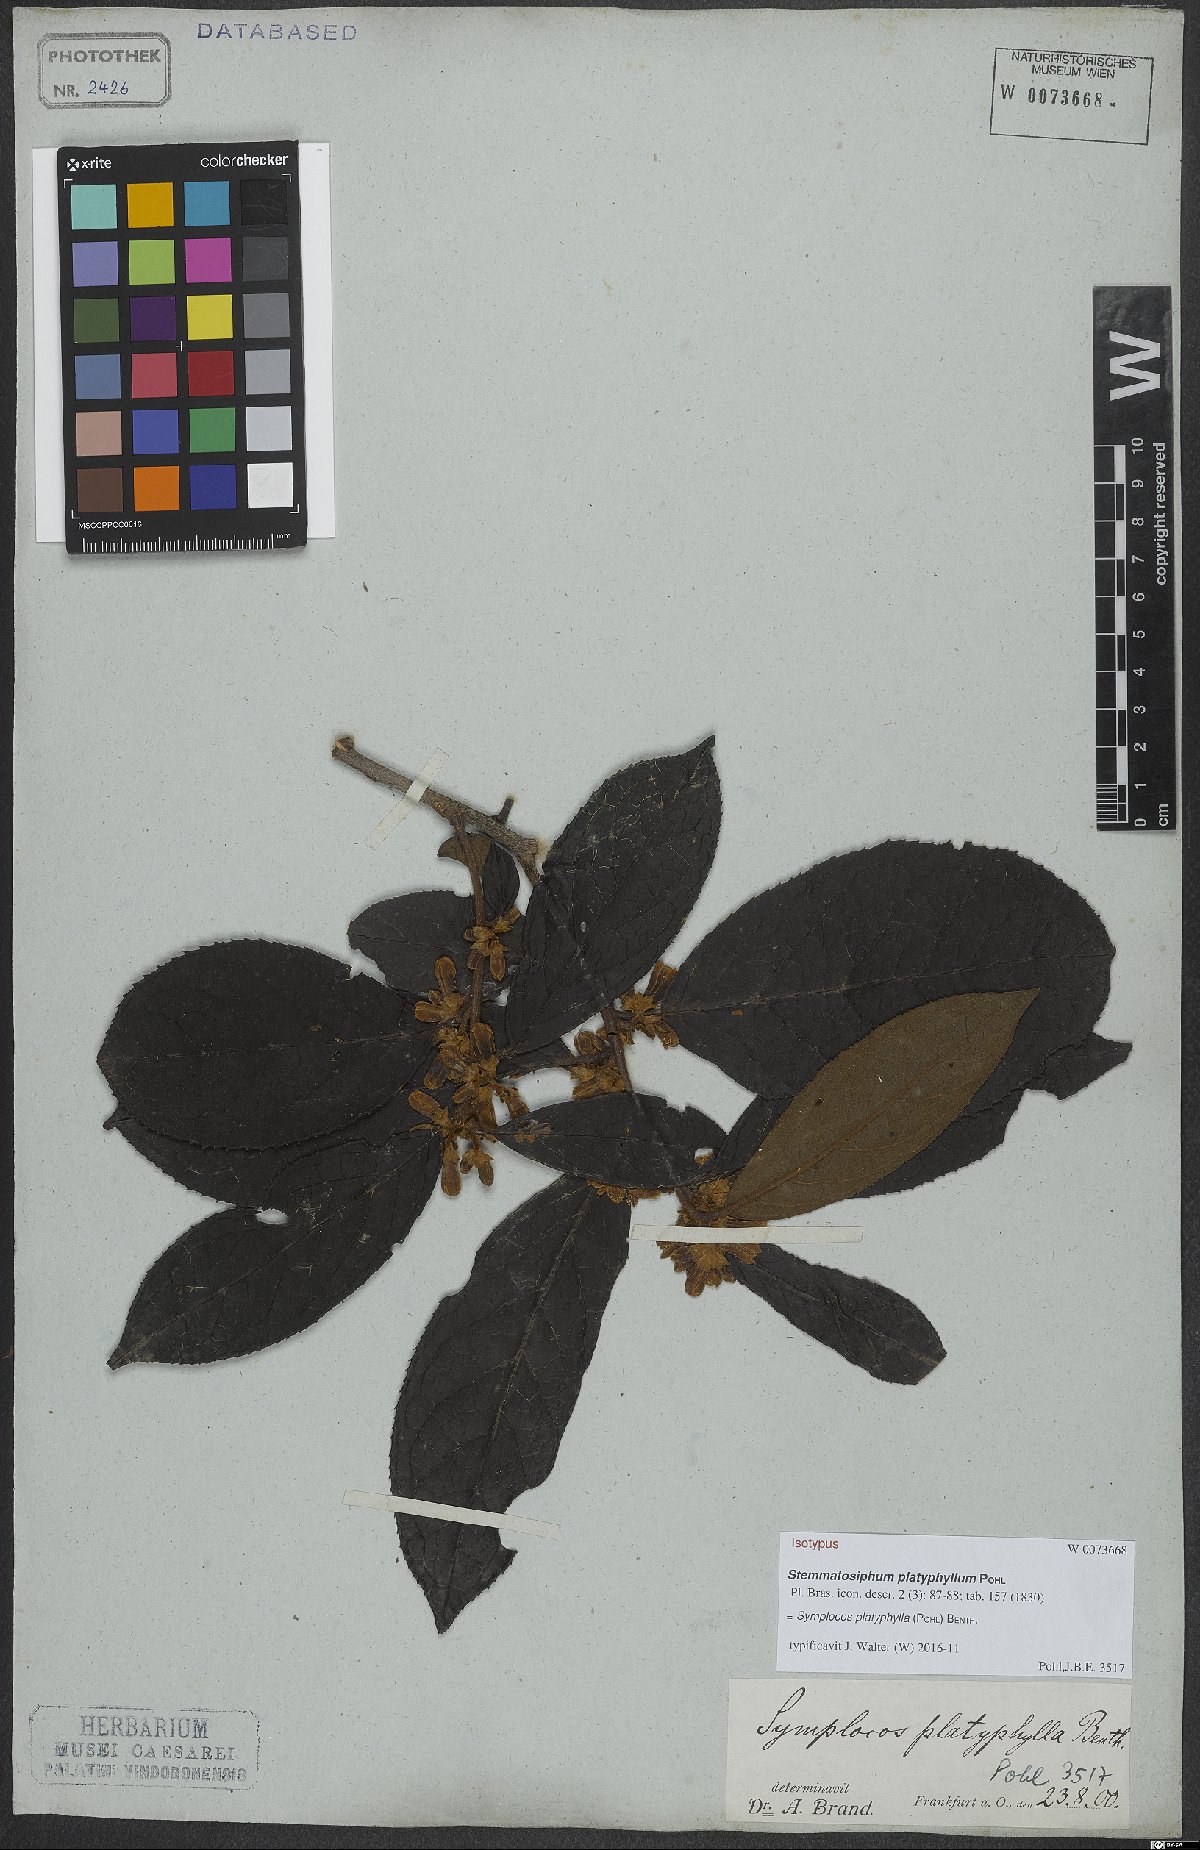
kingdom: Plantae
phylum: Tracheophyta
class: Magnoliopsida
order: Ericales
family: Symplocaceae
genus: Symplocos
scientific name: Symplocos platyphylla
